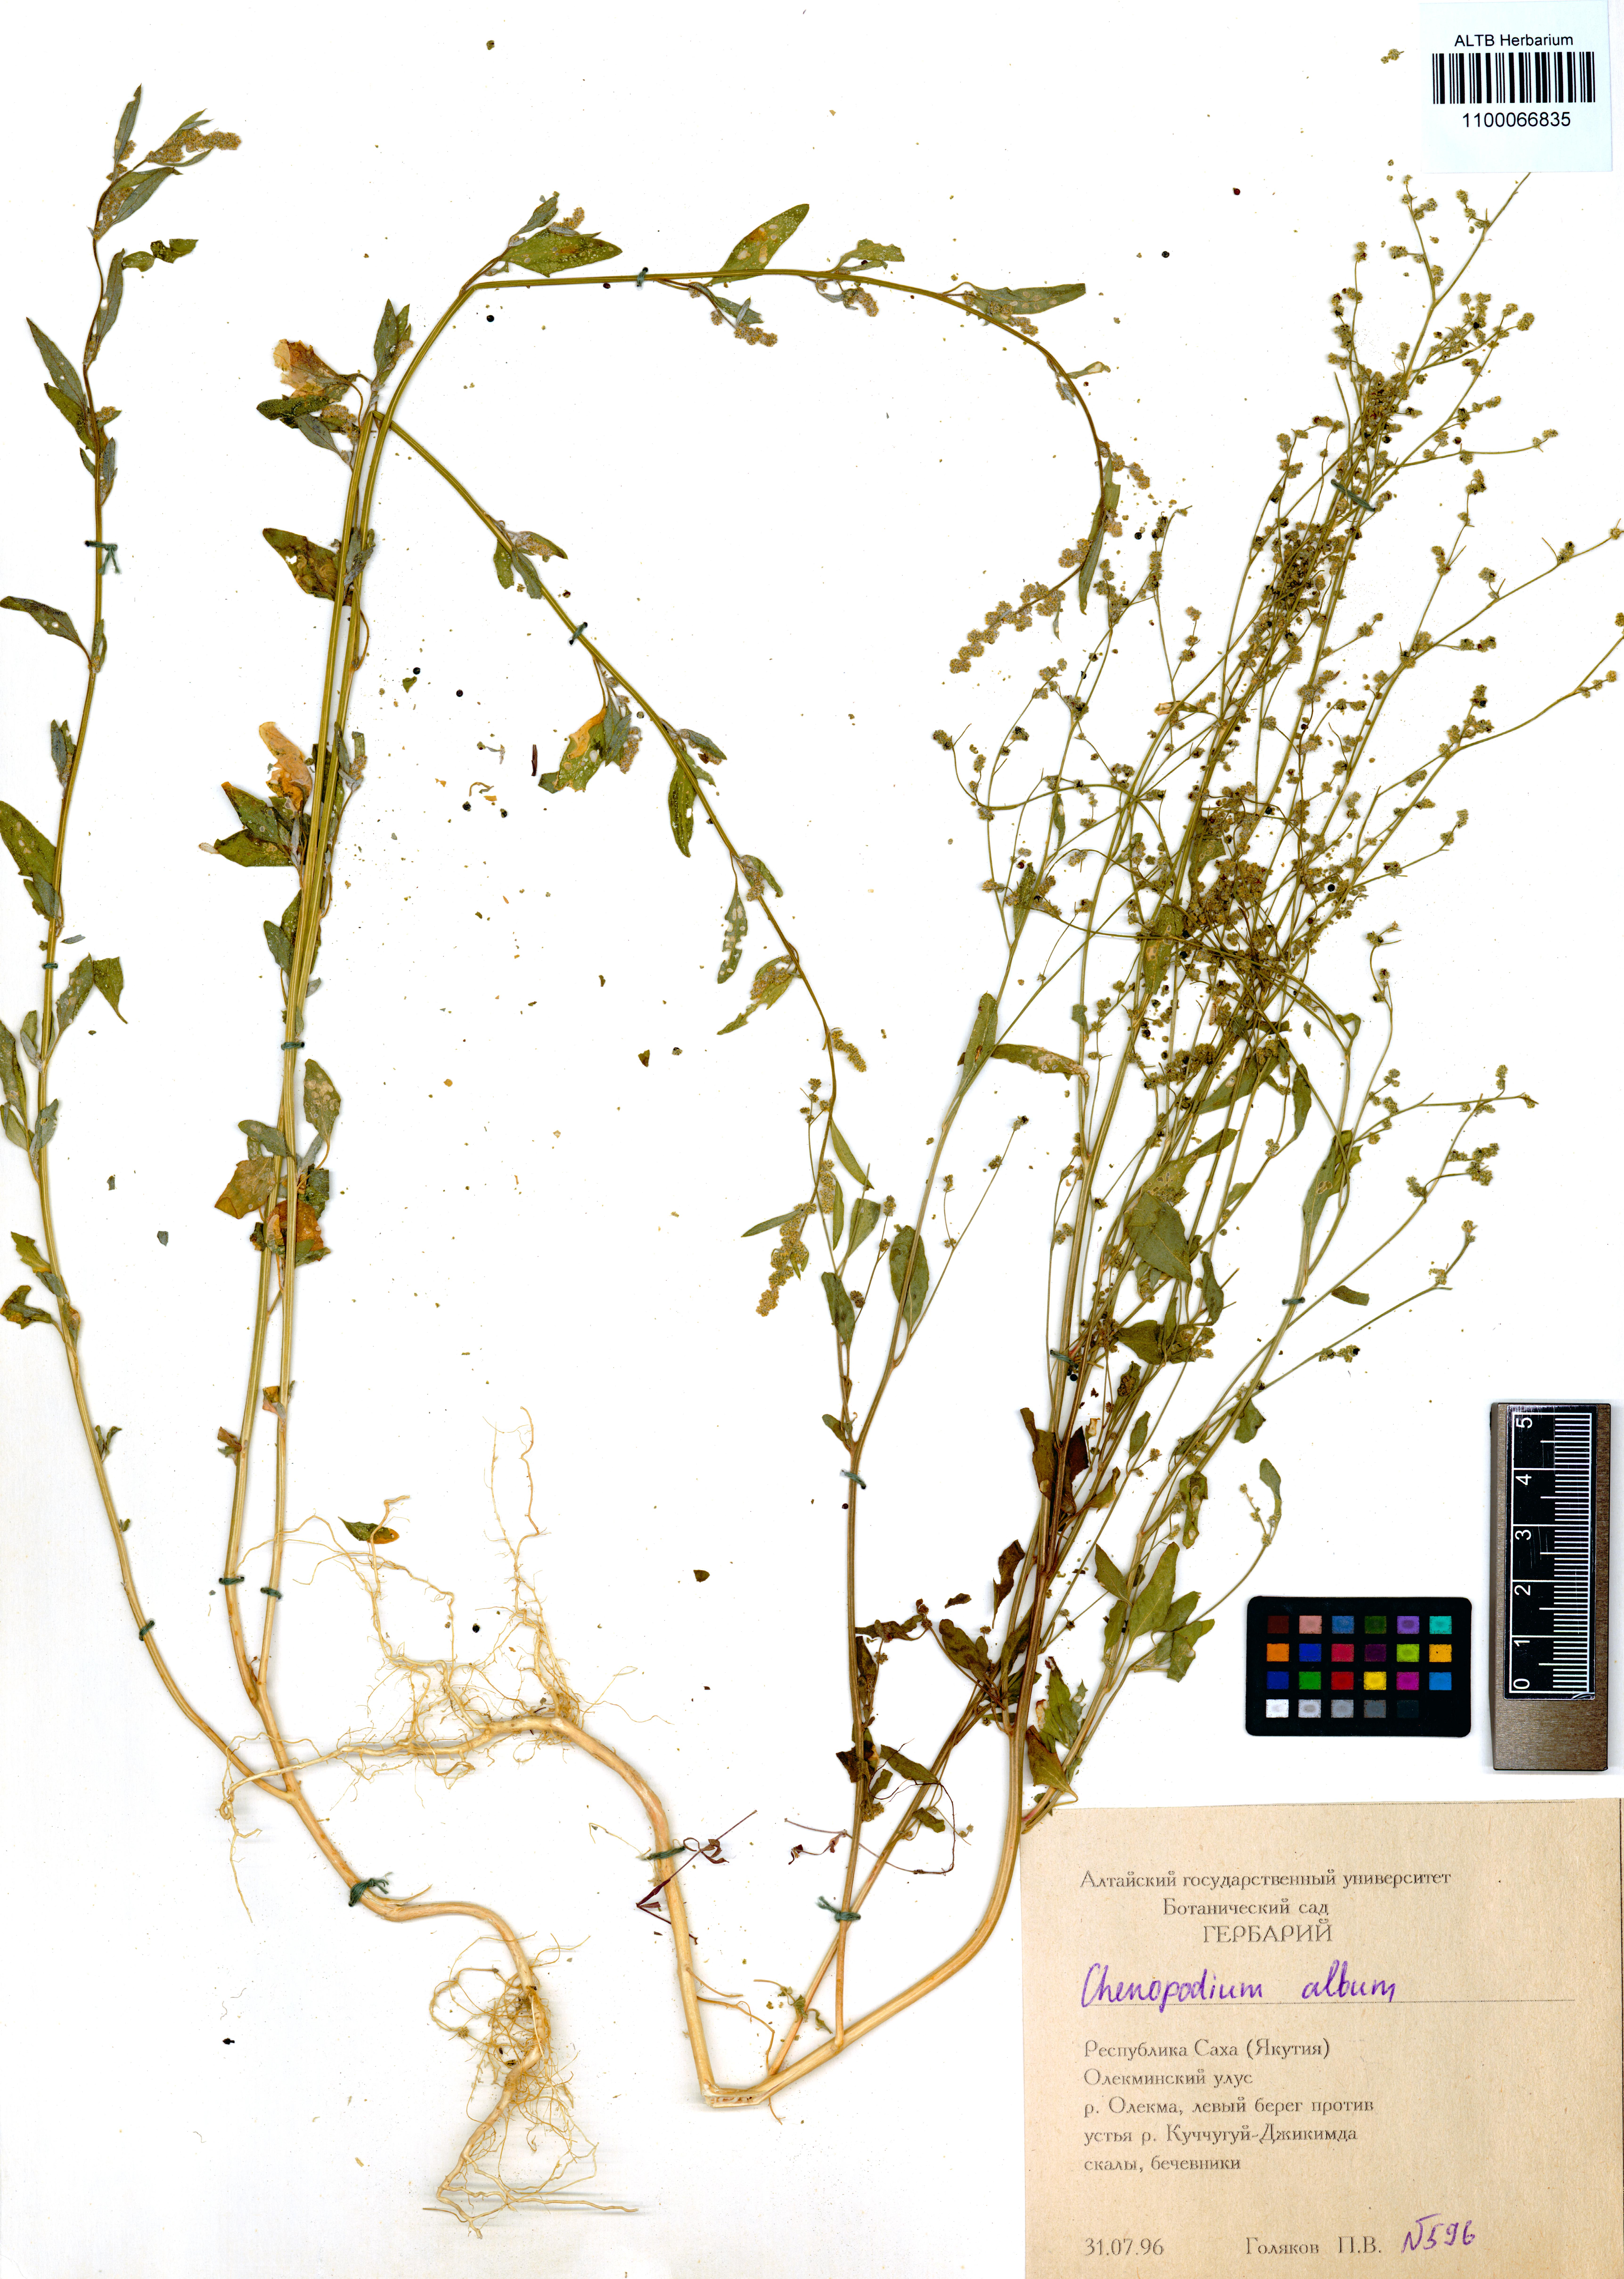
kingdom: Plantae
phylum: Tracheophyta
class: Magnoliopsida
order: Caryophyllales
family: Amaranthaceae
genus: Chenopodium
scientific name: Chenopodium album
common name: Fat-hen
